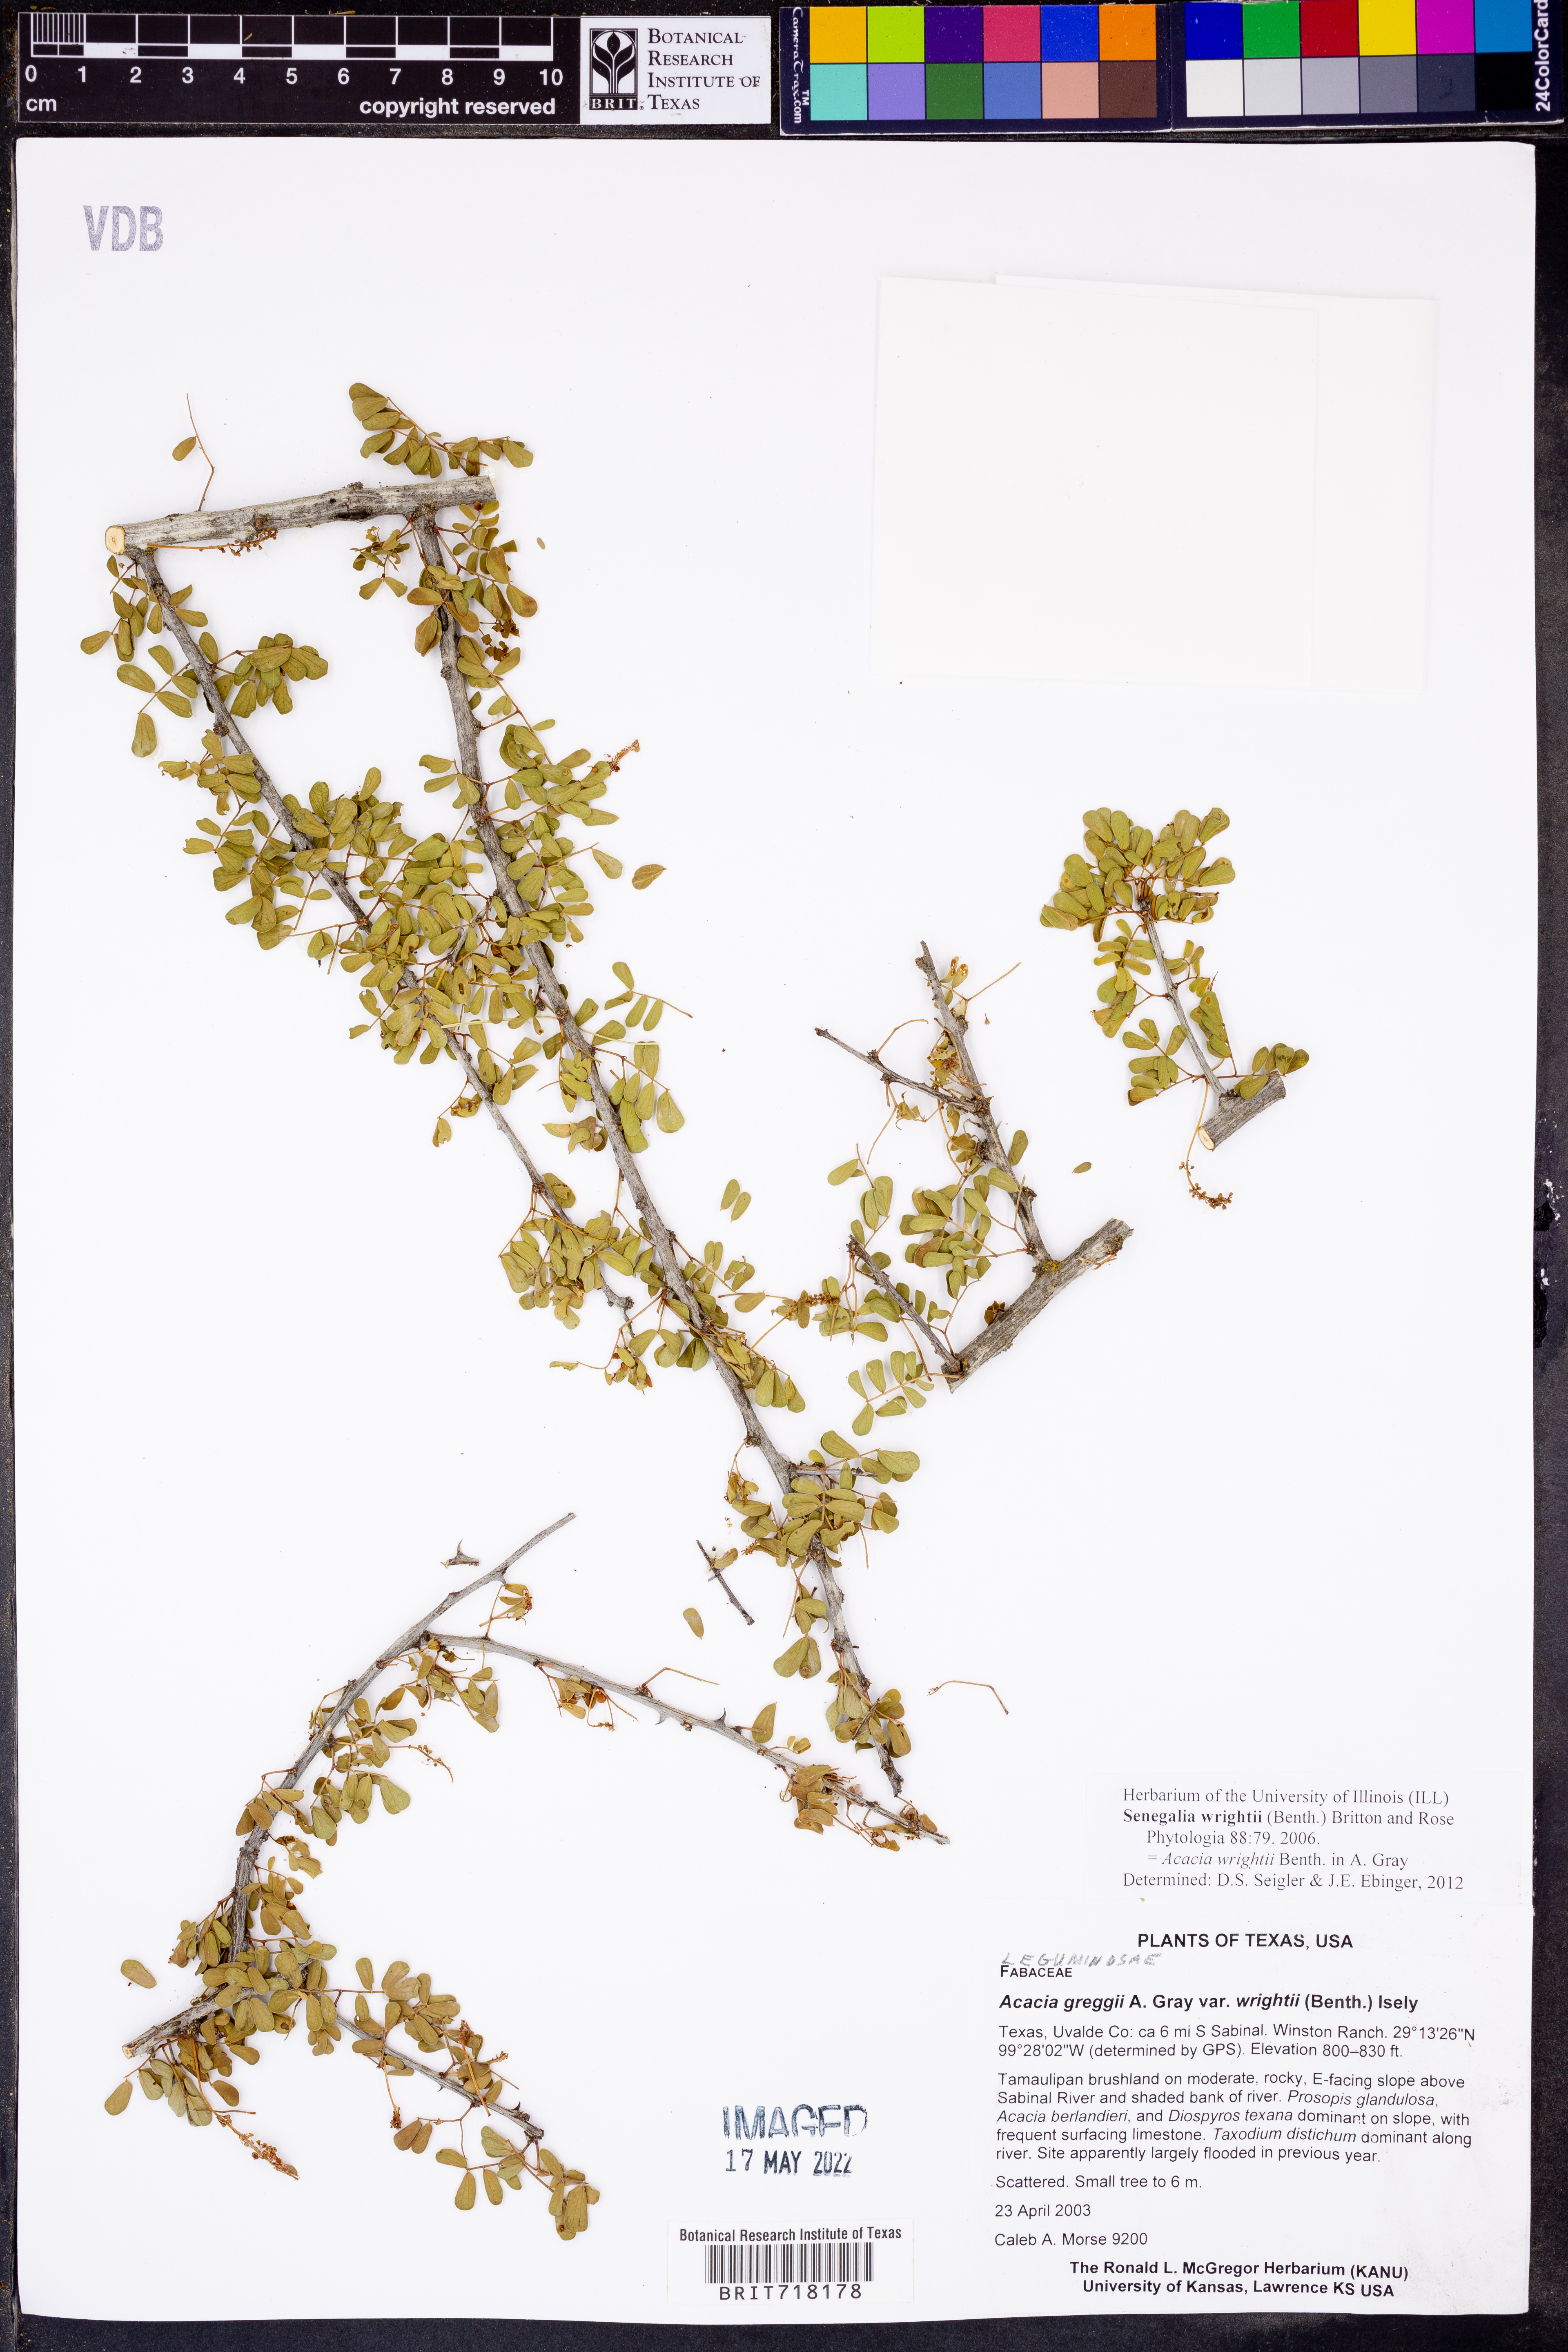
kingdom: Plantae
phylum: Tracheophyta
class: Magnoliopsida
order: Fabales
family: Fabaceae
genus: Senegalia
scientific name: Senegalia wrightii
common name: Texas cat's-claw
